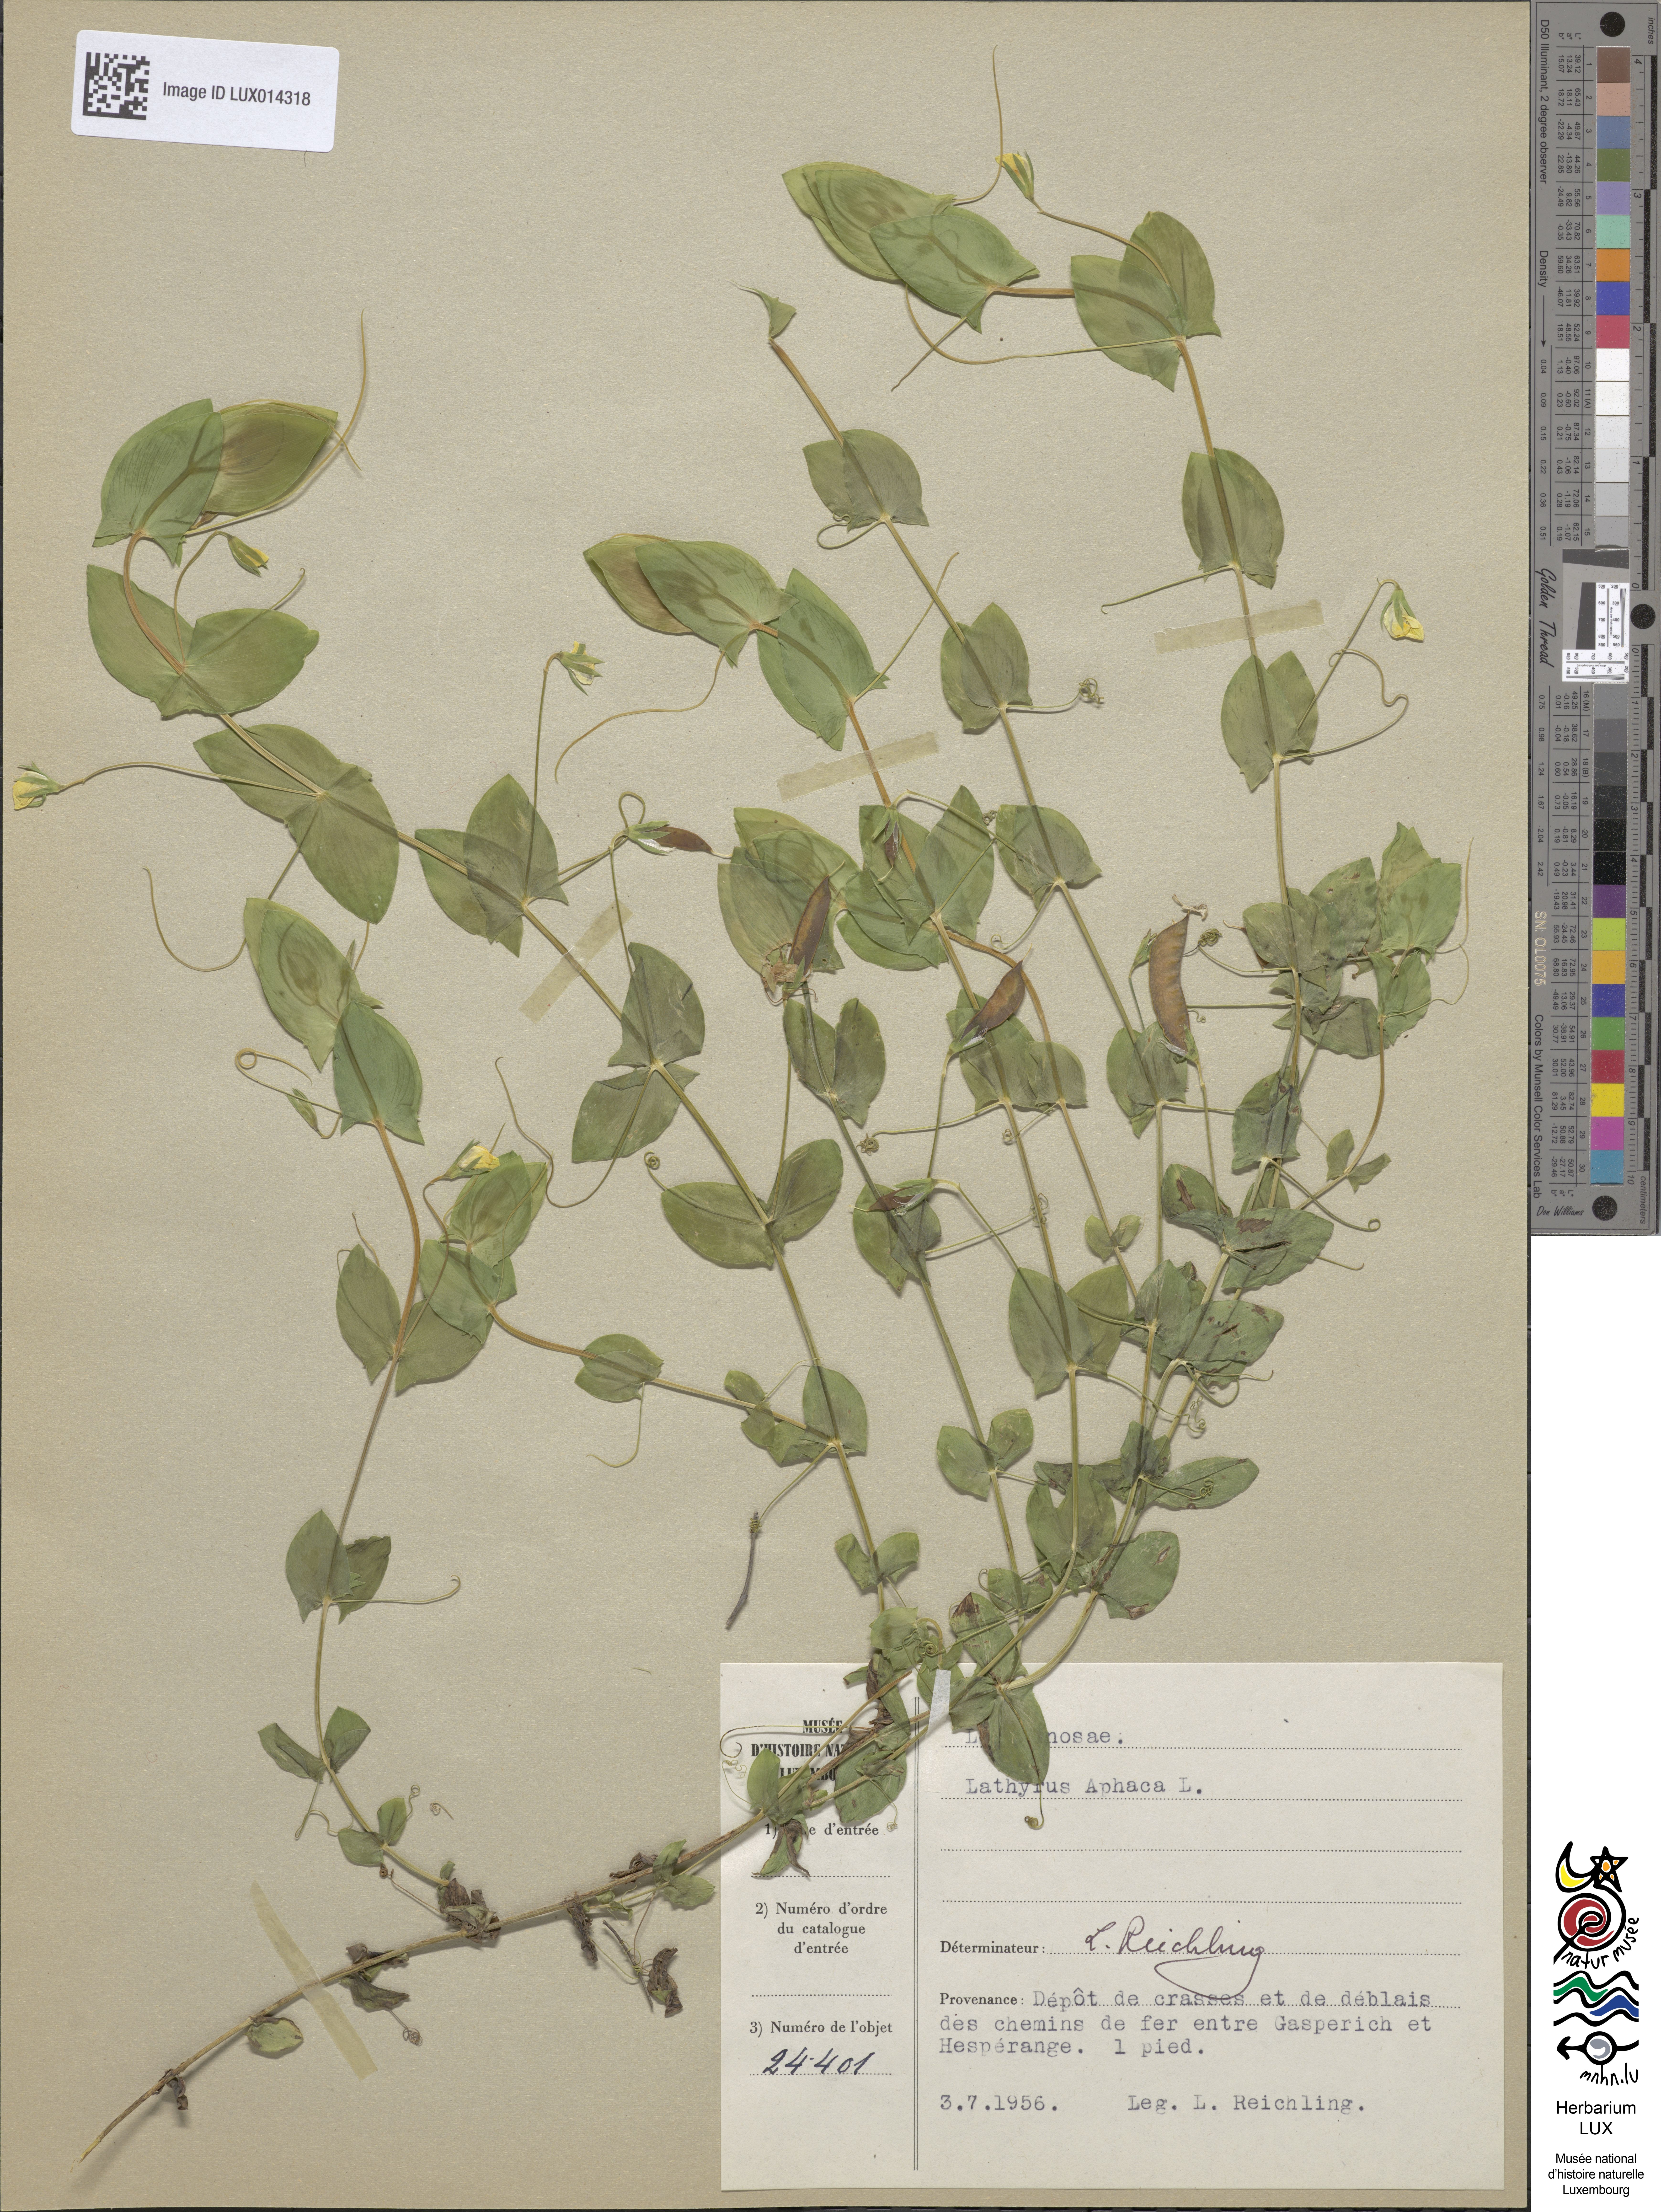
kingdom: Plantae
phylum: Tracheophyta
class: Magnoliopsida
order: Fabales
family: Fabaceae
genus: Lathyrus
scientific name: Lathyrus aphaca
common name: Yellow vetchling
